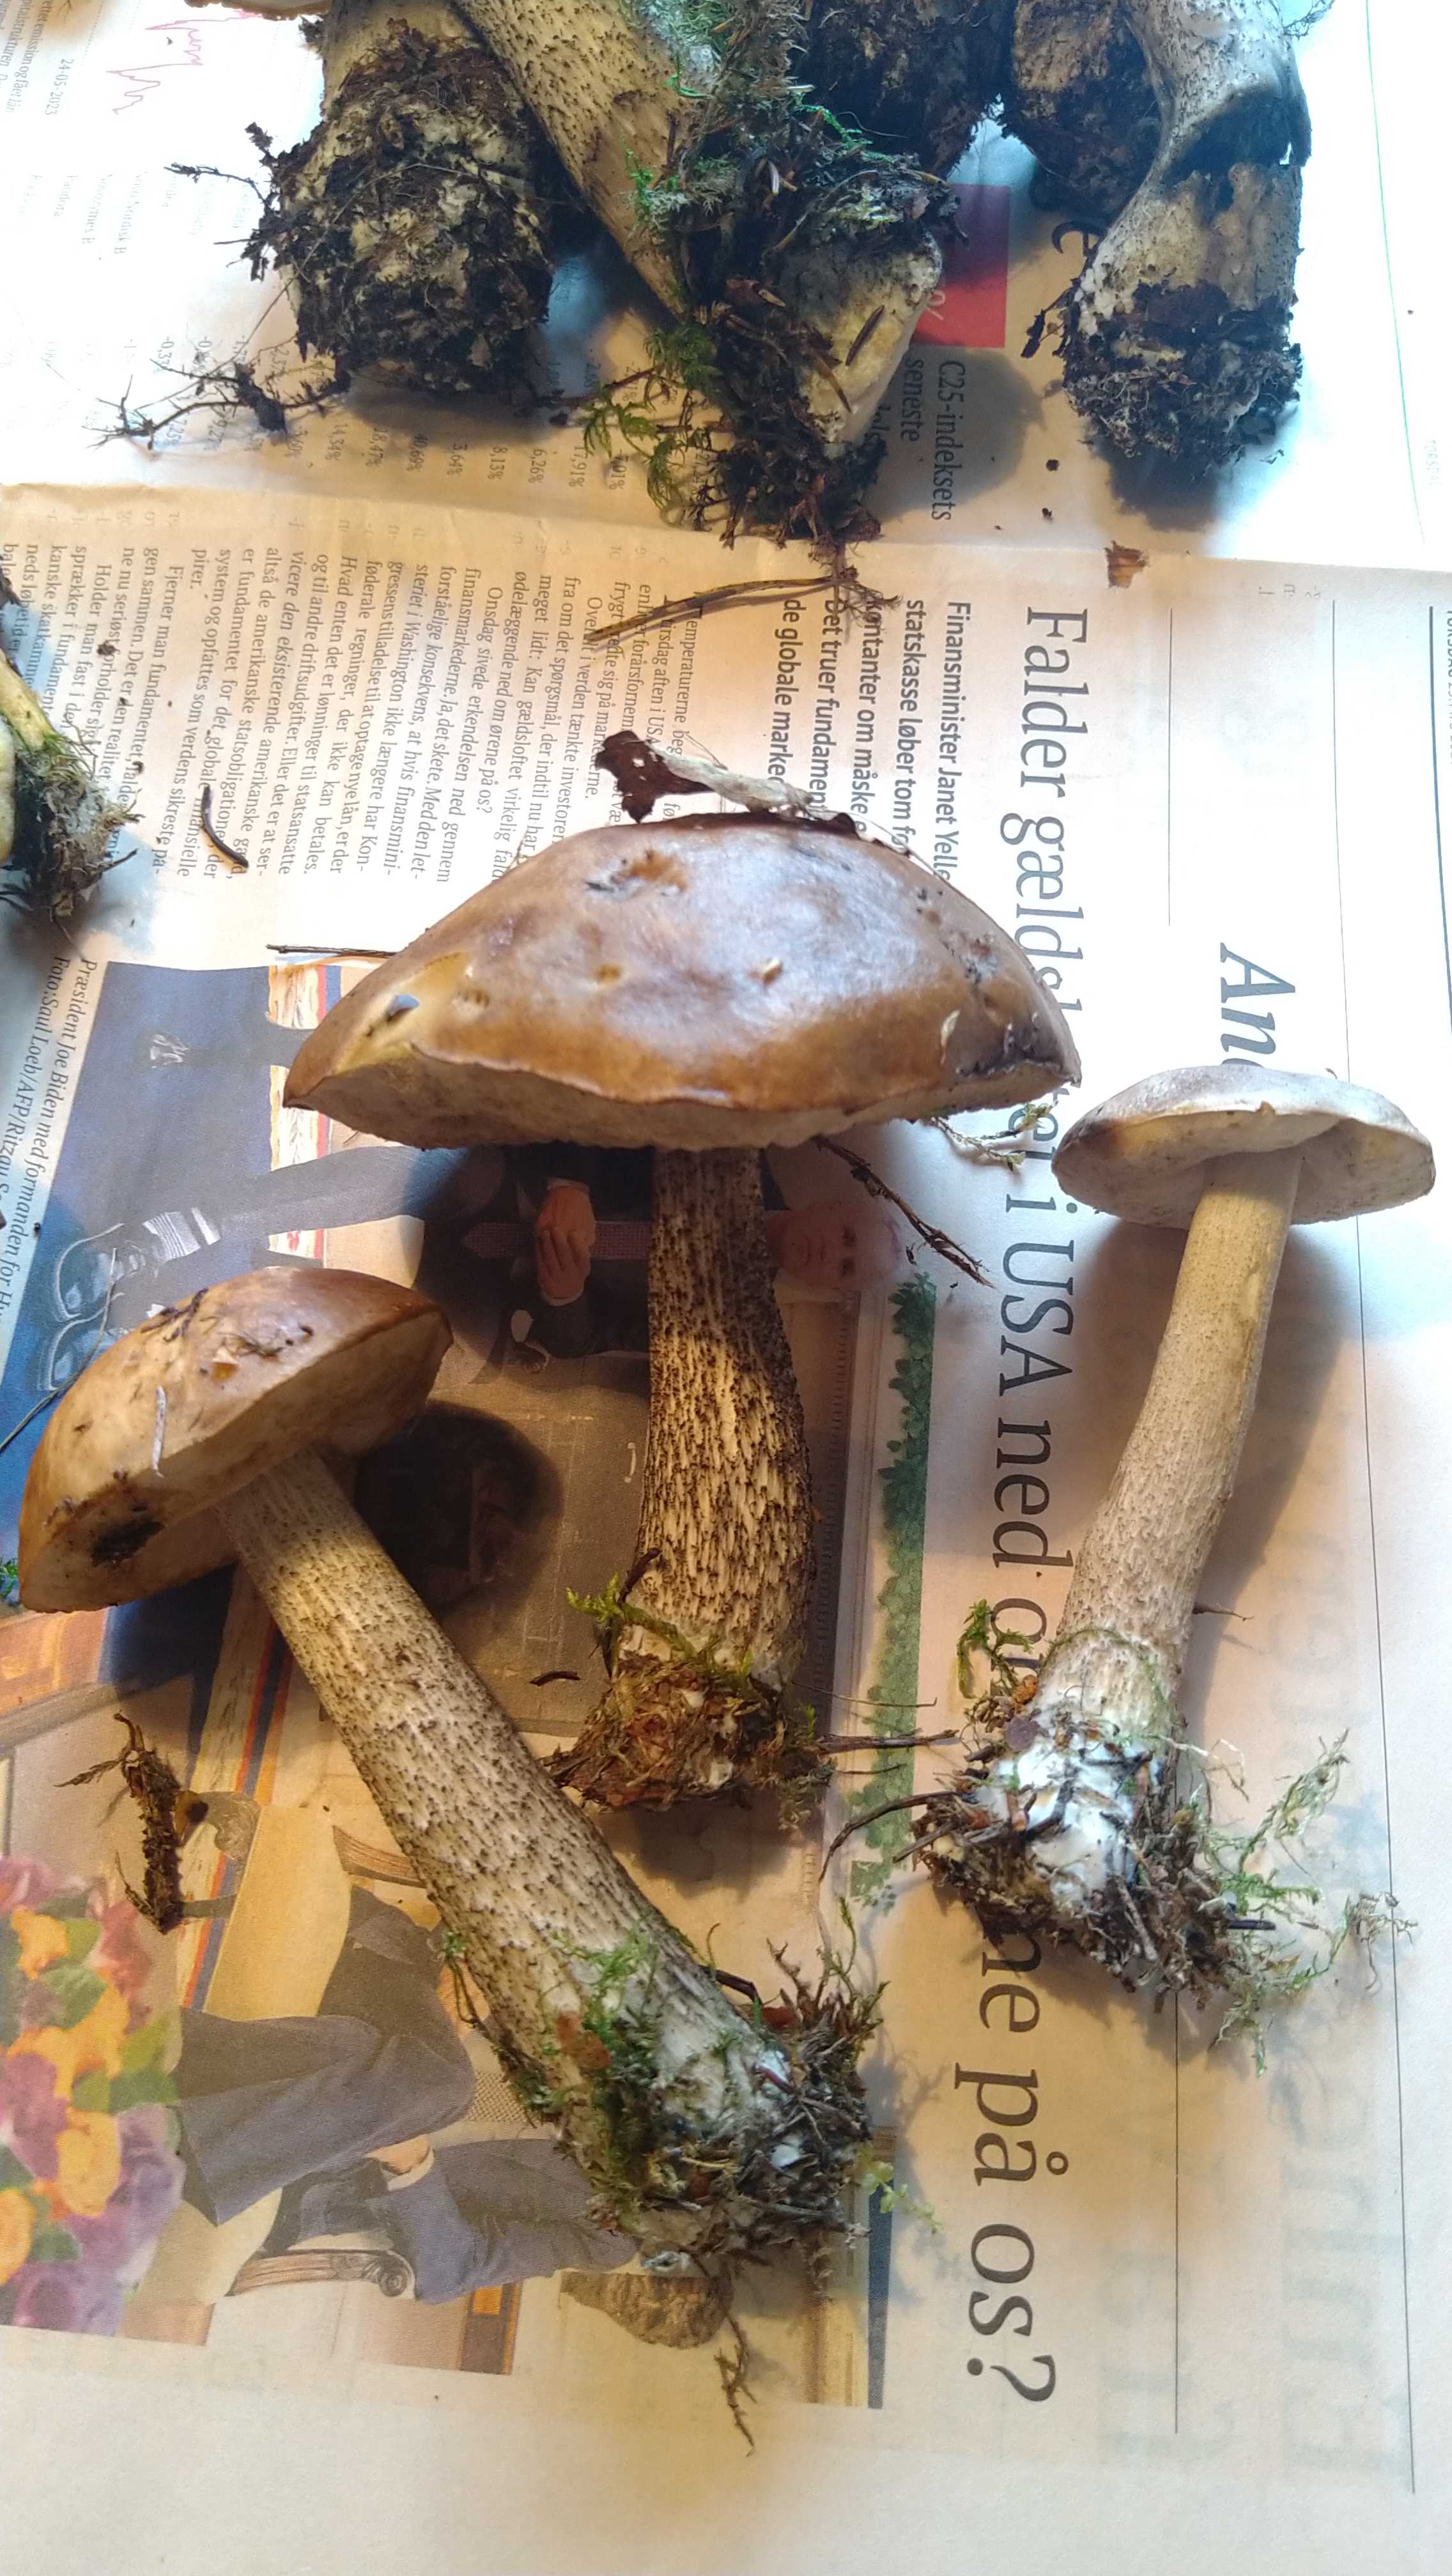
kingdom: Fungi
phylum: Basidiomycota
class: Agaricomycetes
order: Boletales
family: Boletaceae
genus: Leccinum
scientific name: Leccinum
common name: skælrørhat
